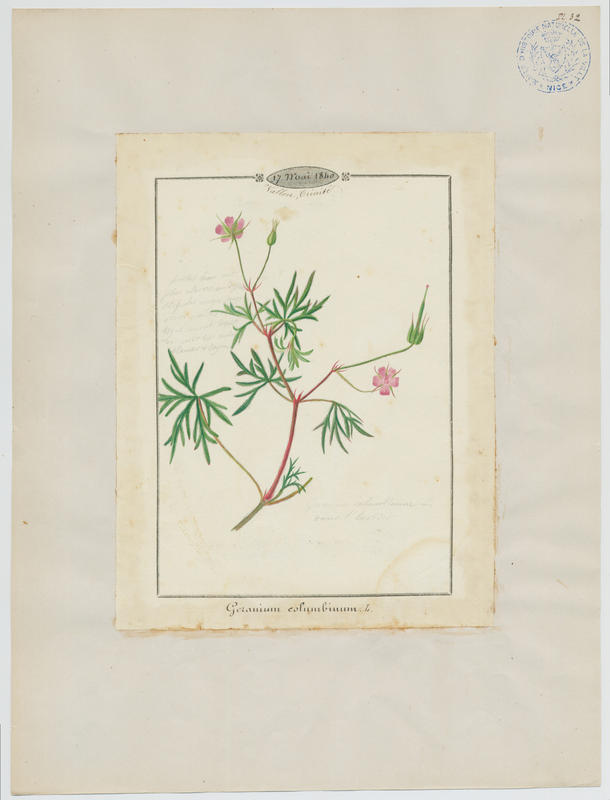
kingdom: Plantae
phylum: Tracheophyta
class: Magnoliopsida
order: Geraniales
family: Geraniaceae
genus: Geranium
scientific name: Geranium columbinum
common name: Long-stalked crane's-bill
